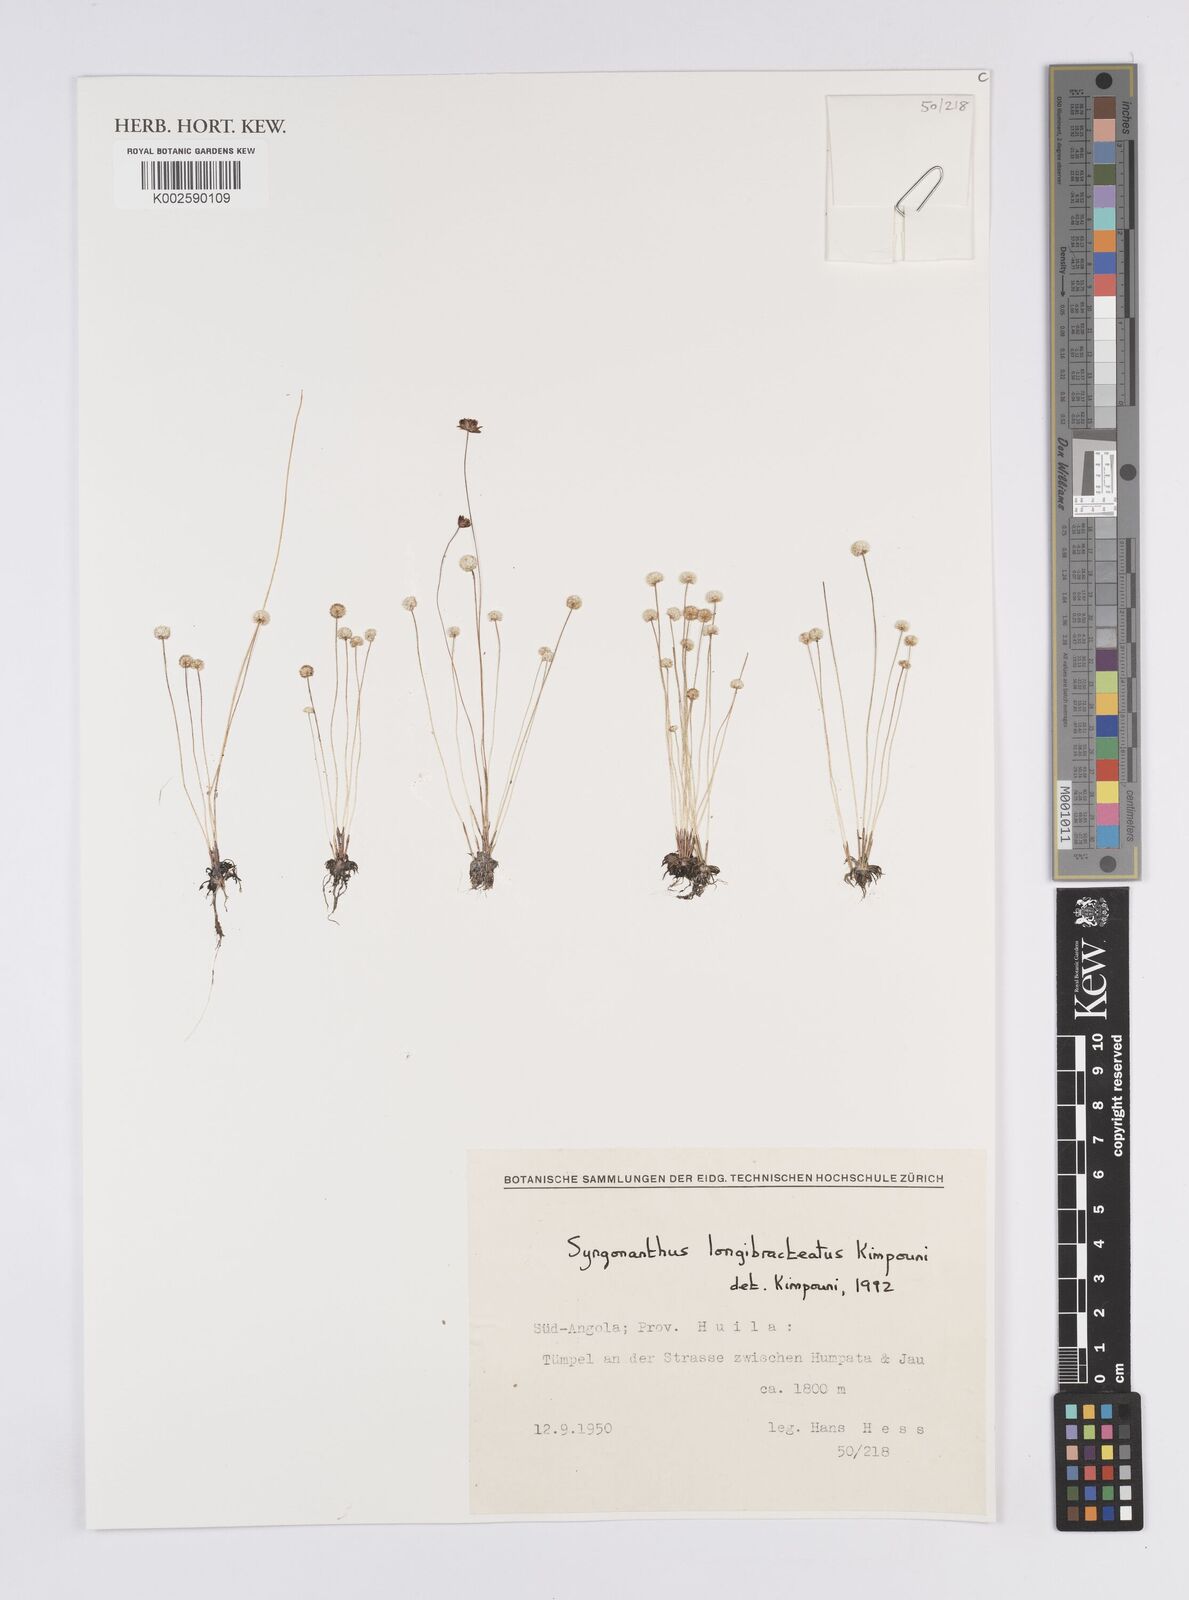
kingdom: Plantae
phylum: Tracheophyta
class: Liliopsida
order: Poales
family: Eriocaulaceae
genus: Syngonanthus
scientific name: Syngonanthus longibracteatus
